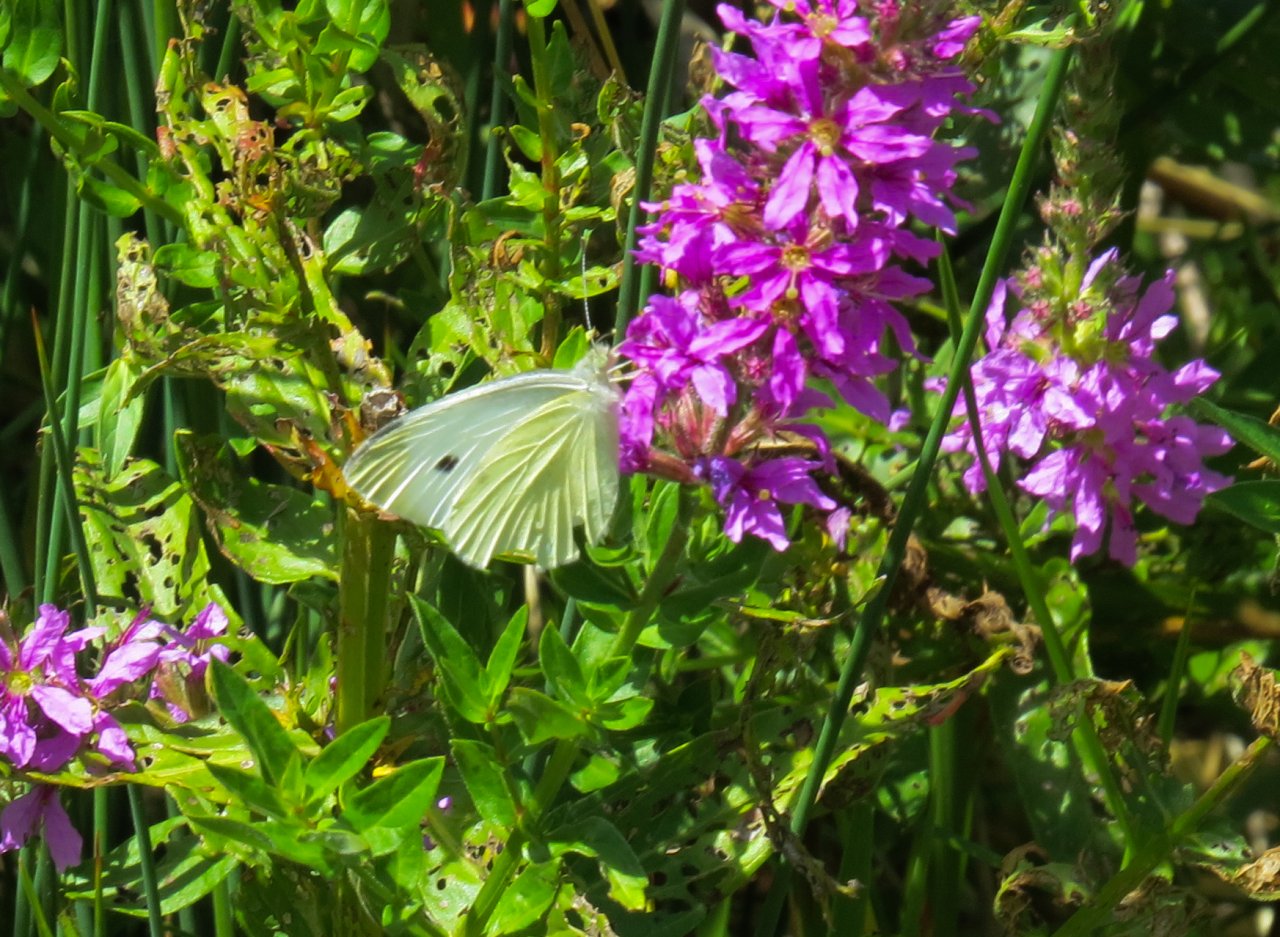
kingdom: Animalia
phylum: Arthropoda
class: Insecta
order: Lepidoptera
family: Pieridae
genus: Pieris
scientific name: Pieris rapae
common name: Cabbage White
